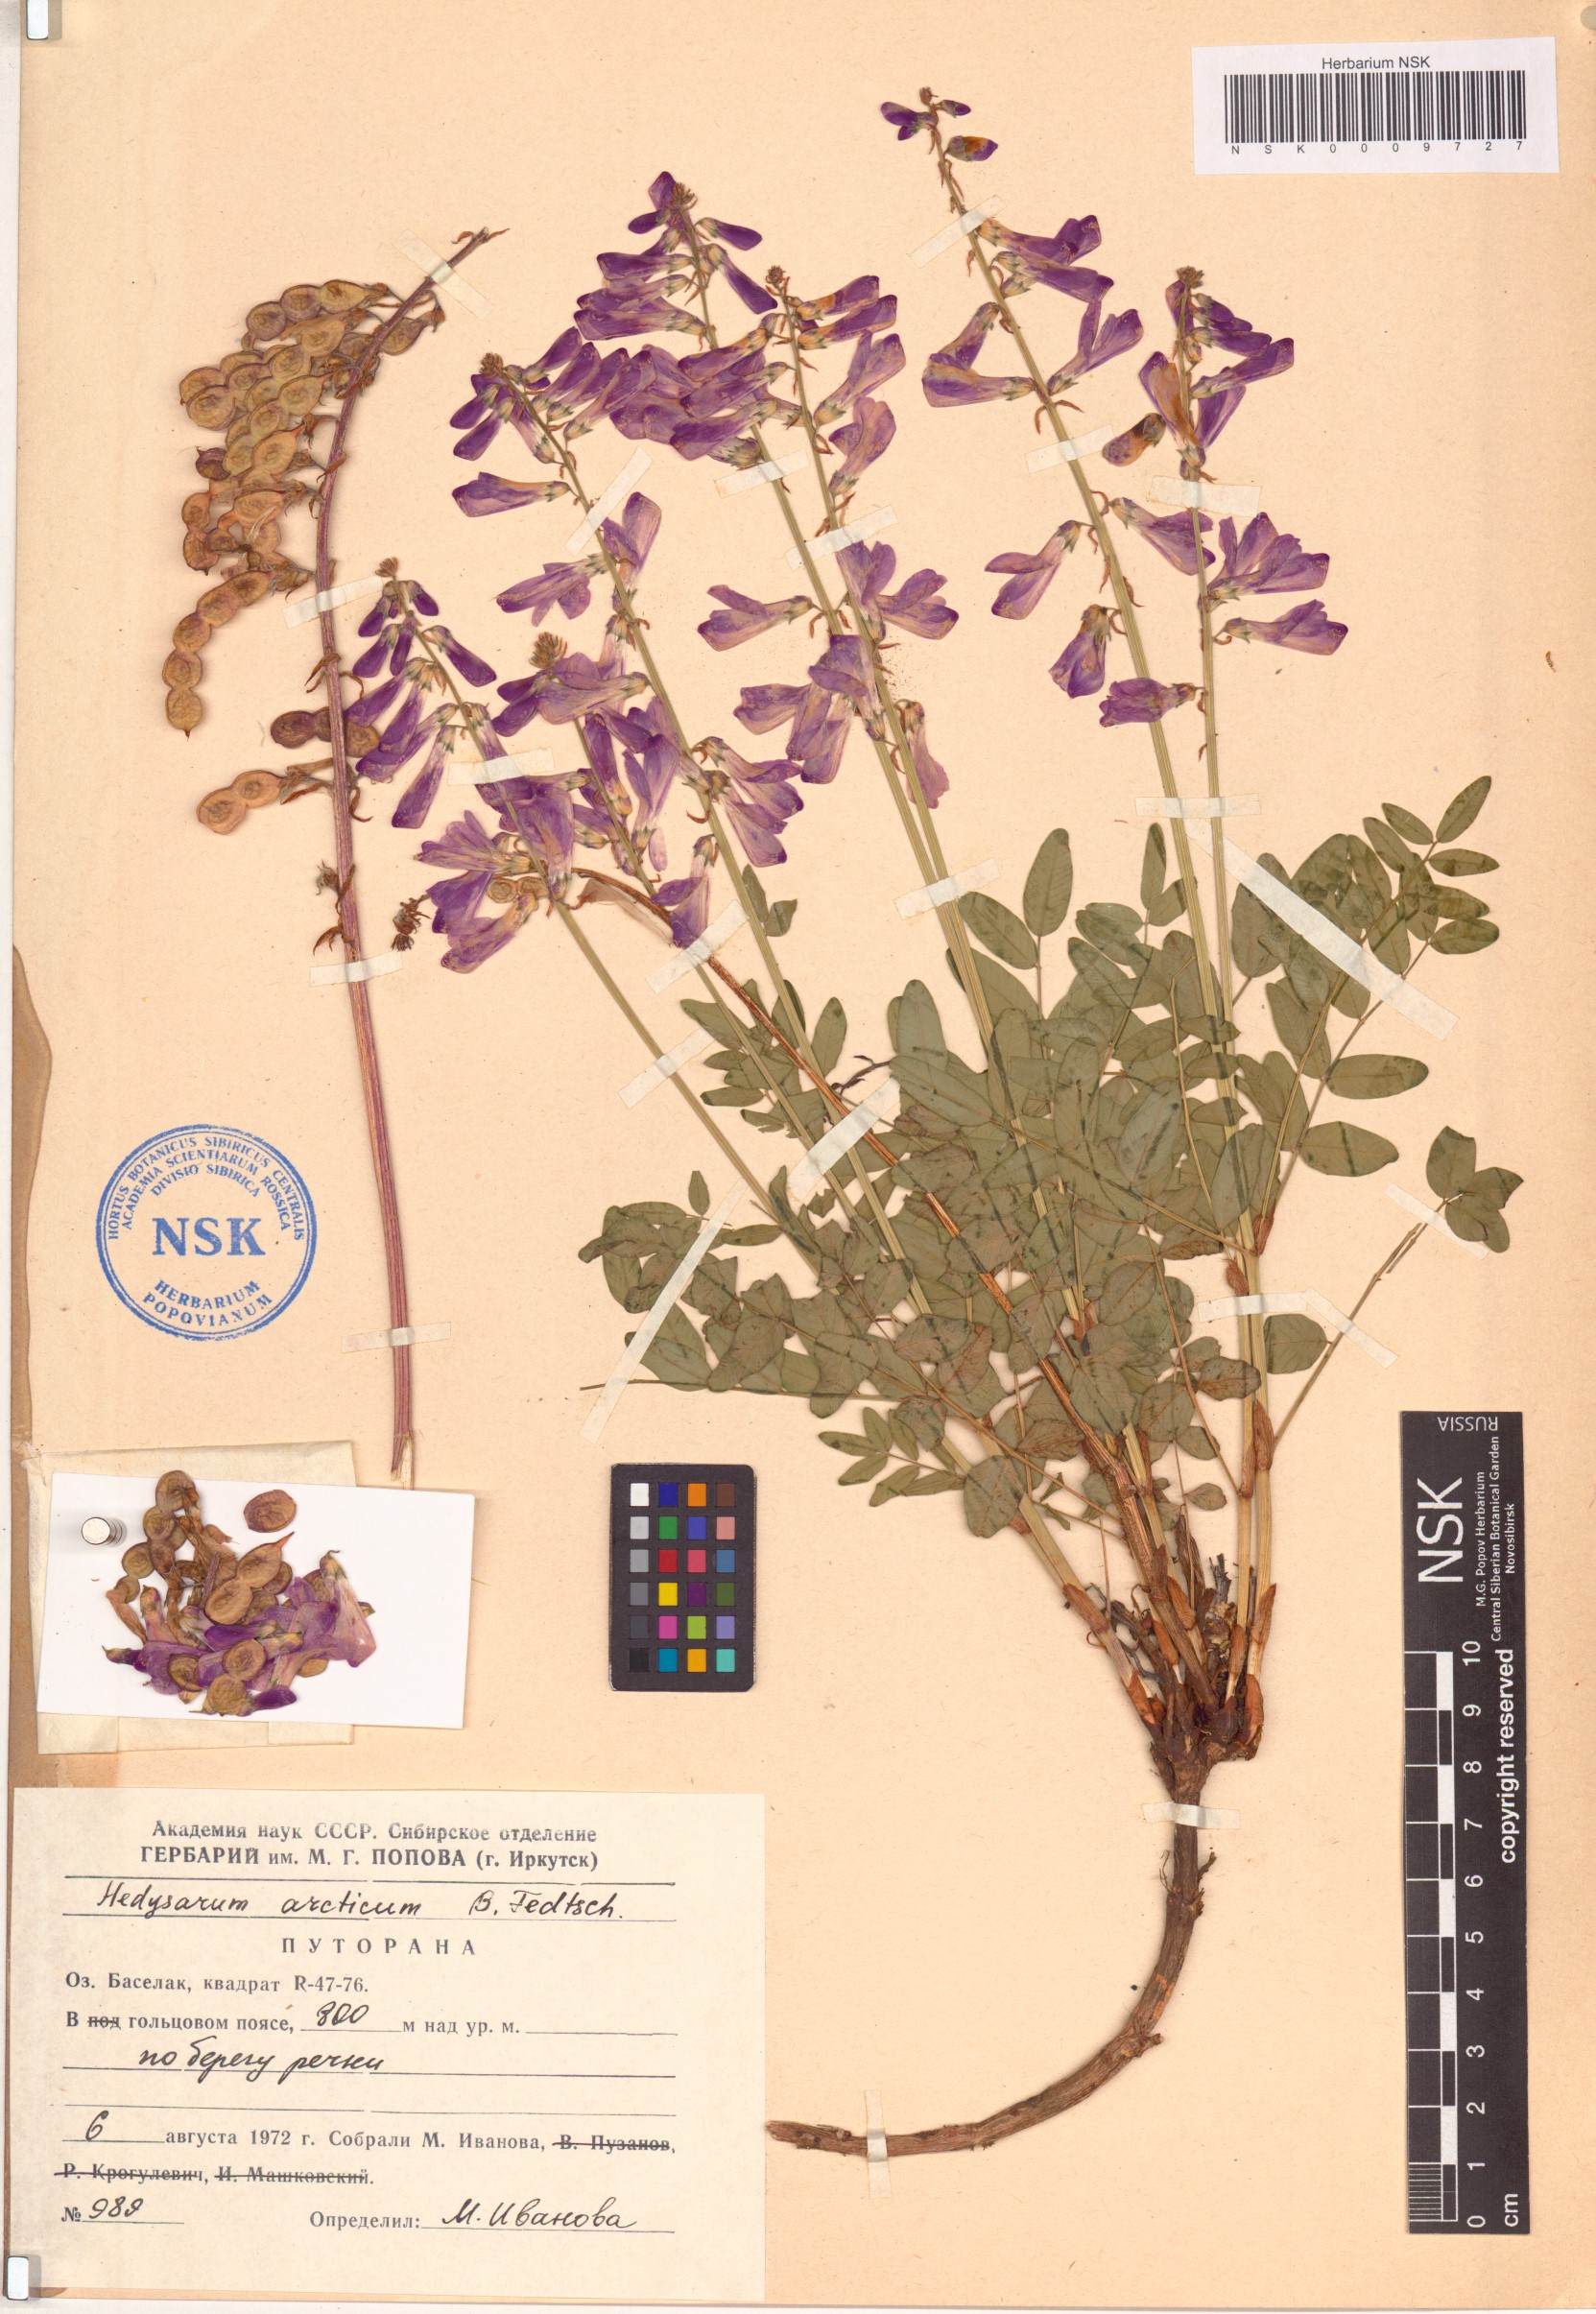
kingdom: Plantae
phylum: Tracheophyta
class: Magnoliopsida
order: Fabales
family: Fabaceae
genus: Hedysarum
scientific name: Hedysarum hedysaroides
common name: Alpine french-honeysuckle
